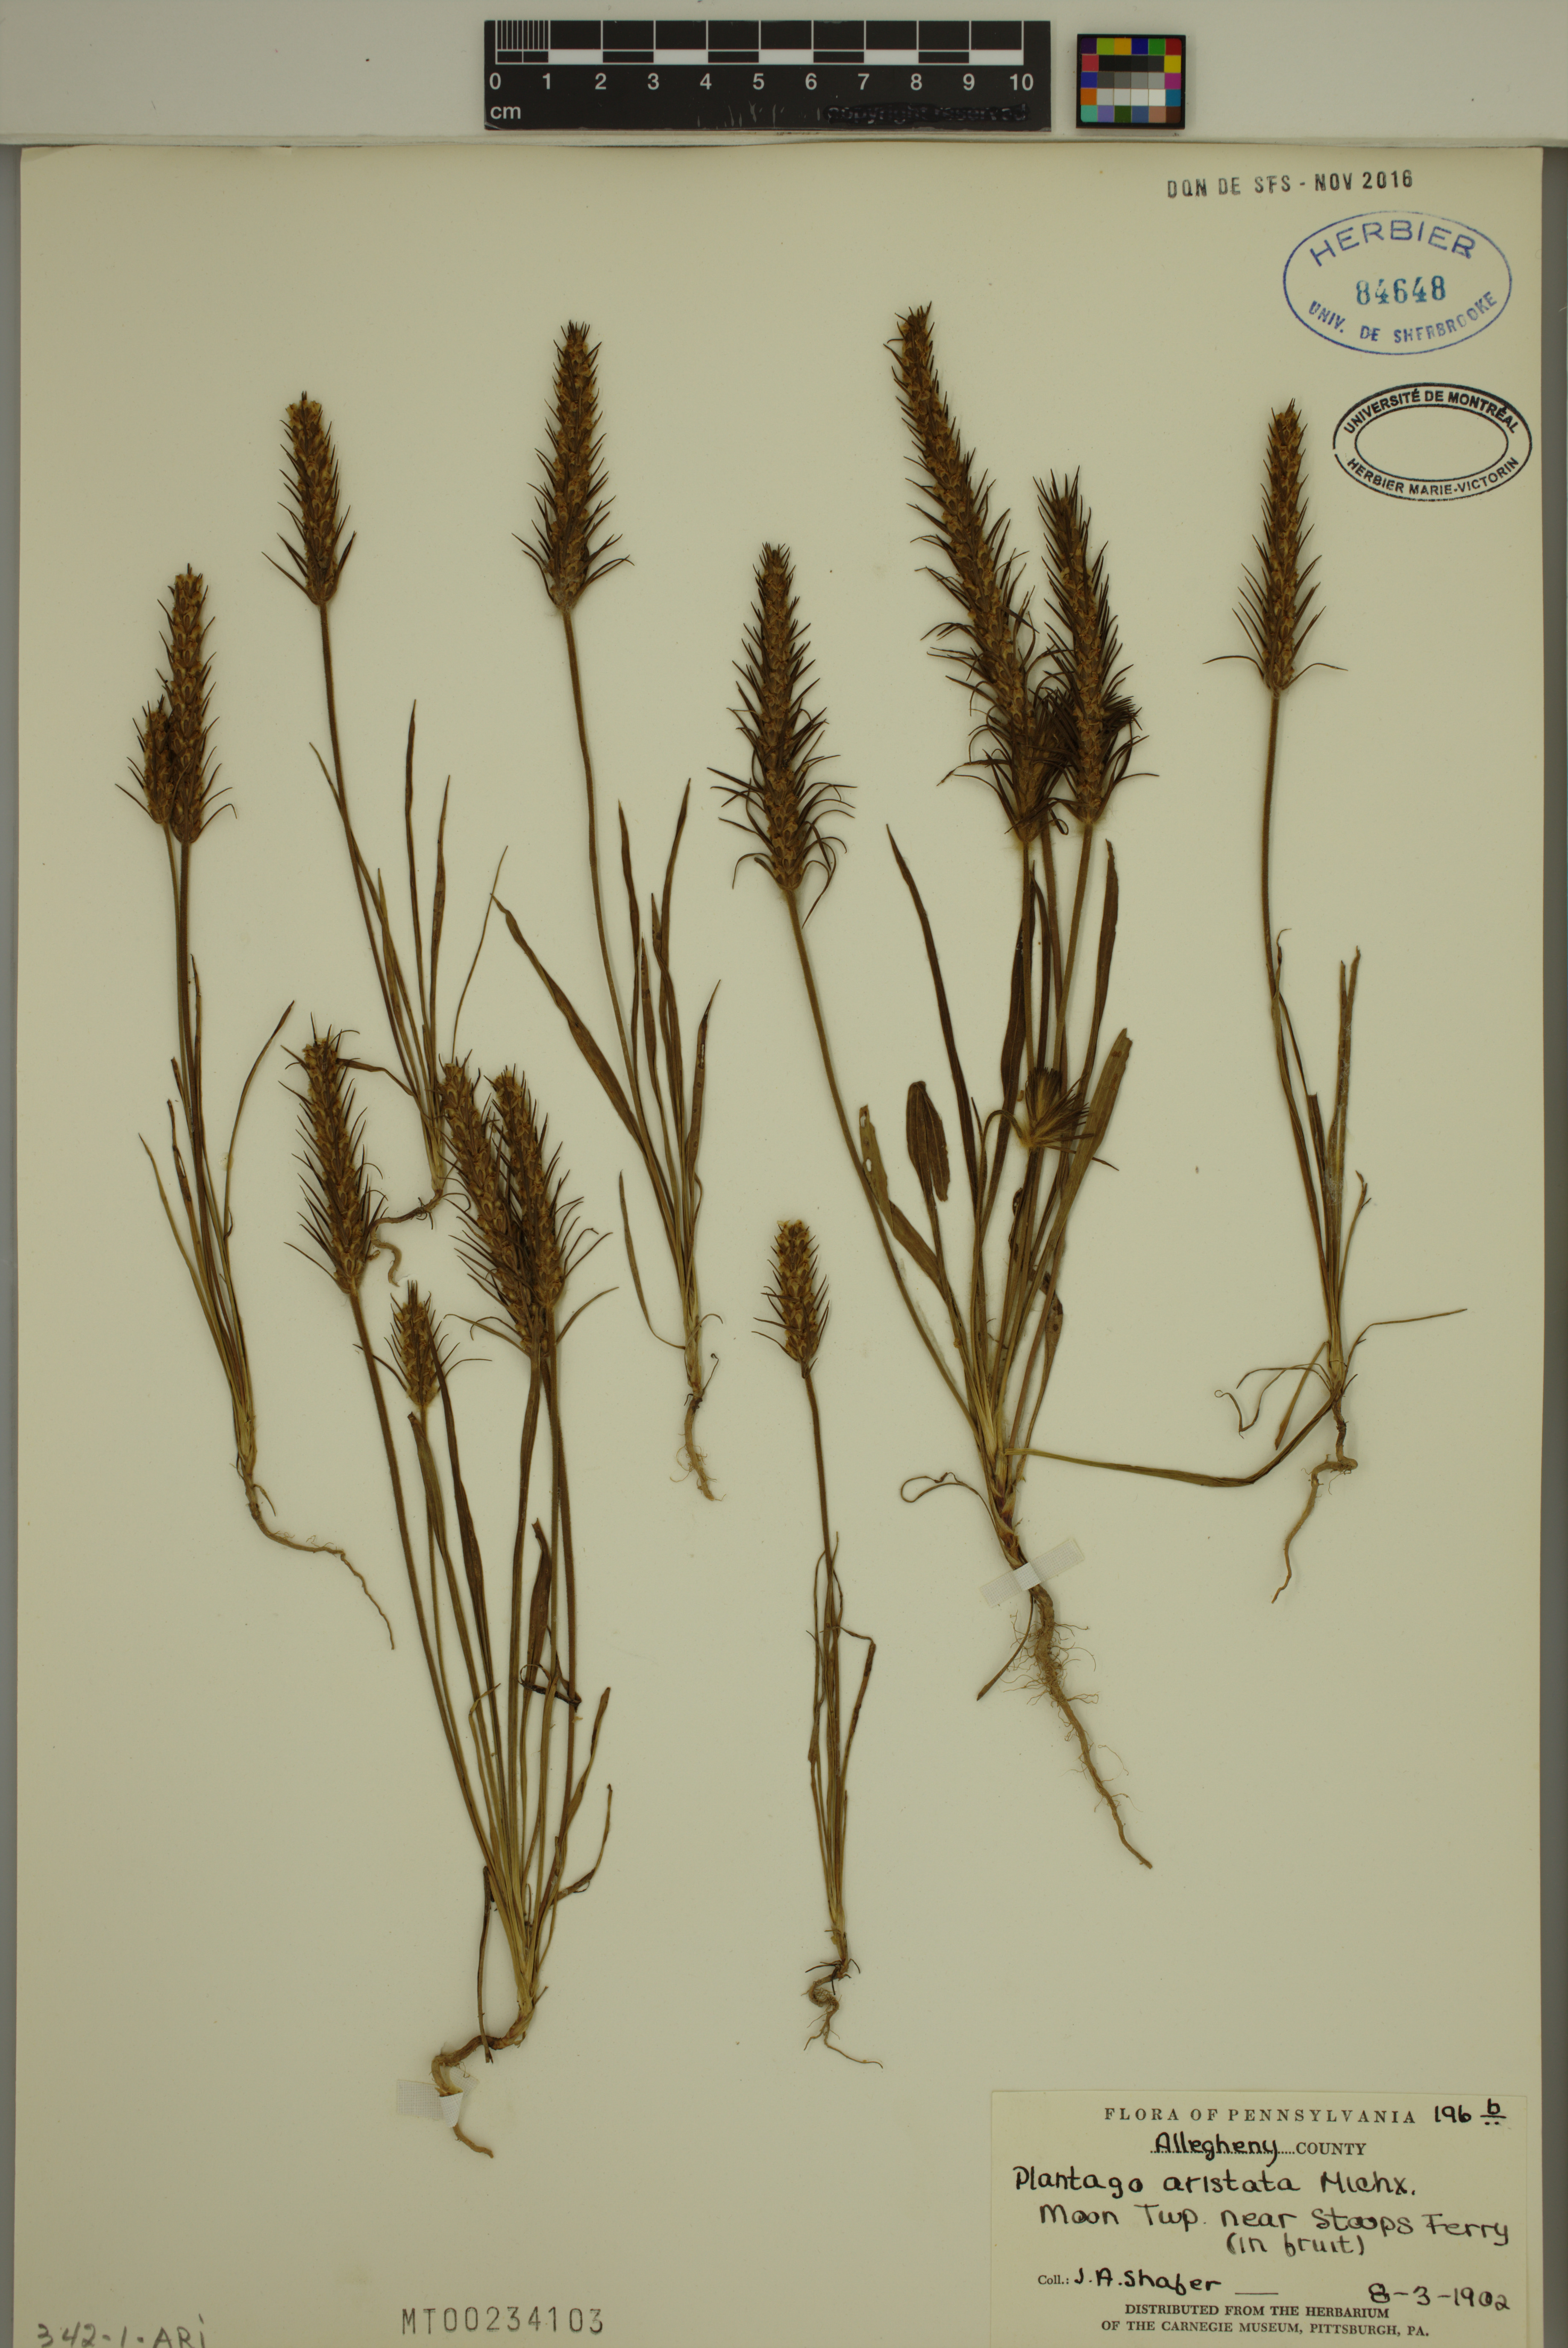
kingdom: Plantae
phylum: Tracheophyta
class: Magnoliopsida
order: Lamiales
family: Plantaginaceae
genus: Plantago
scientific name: Plantago aristata
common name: Bracted plantain
